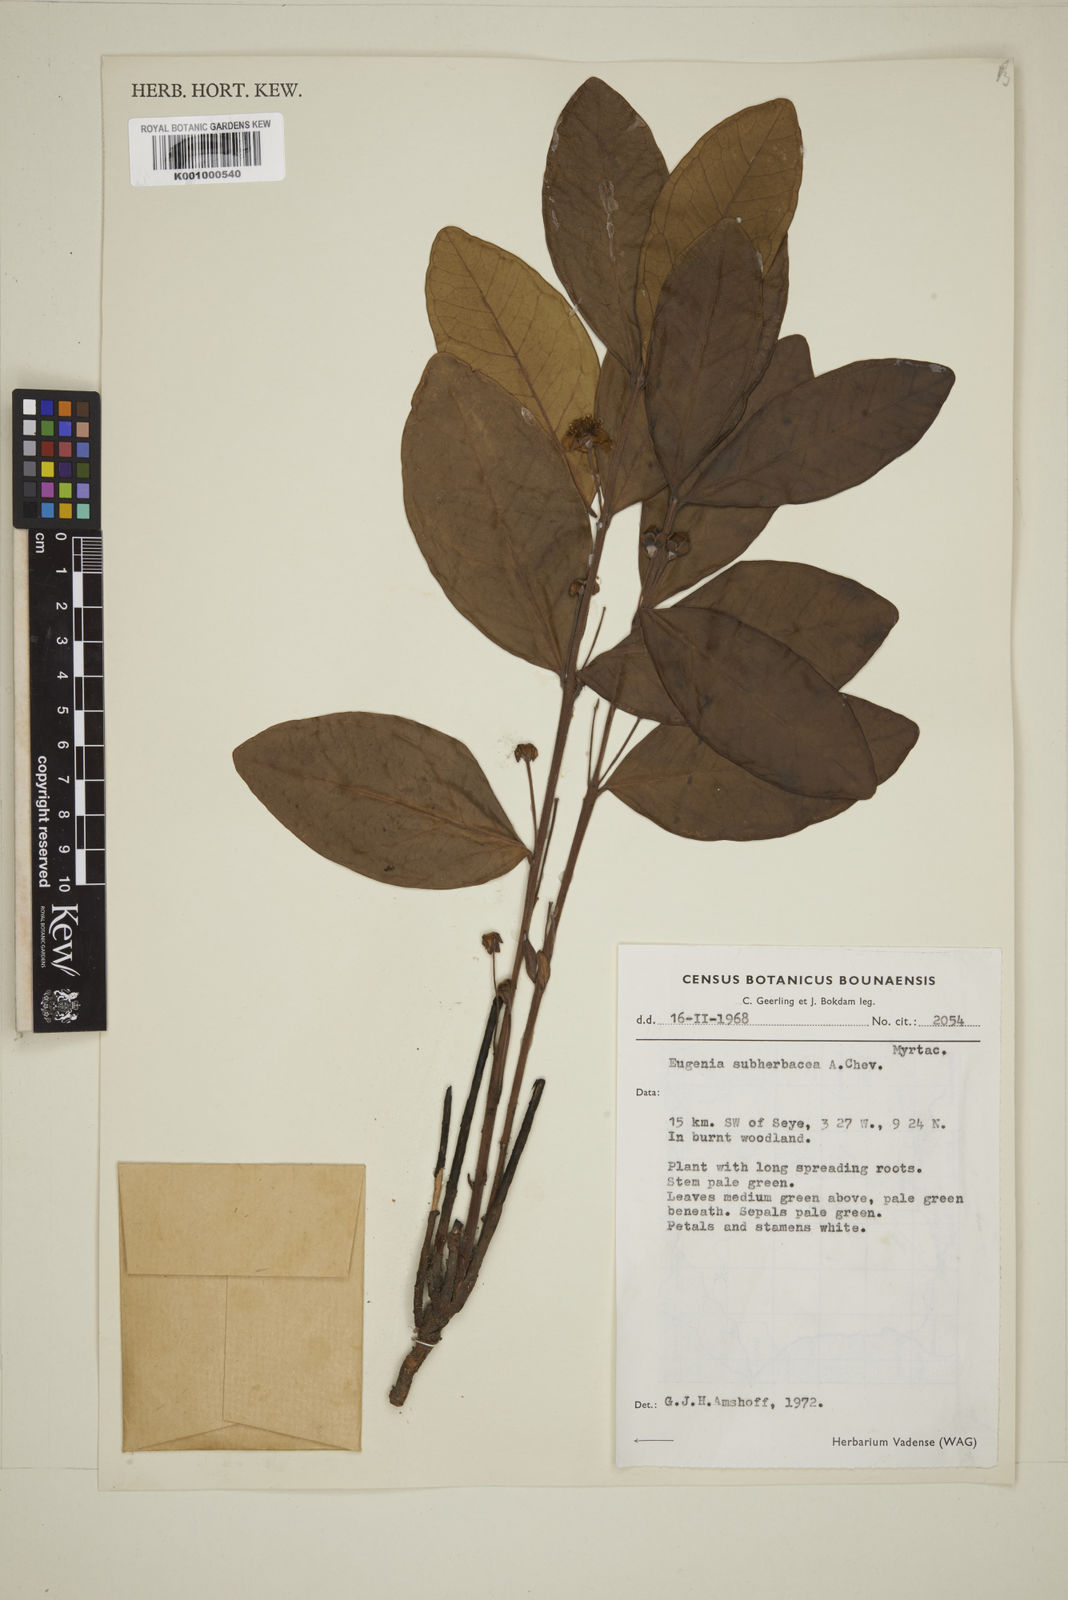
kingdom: Plantae
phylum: Tracheophyta
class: Magnoliopsida
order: Myrtales
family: Myrtaceae
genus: Eugenia
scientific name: Eugenia subherbacea
